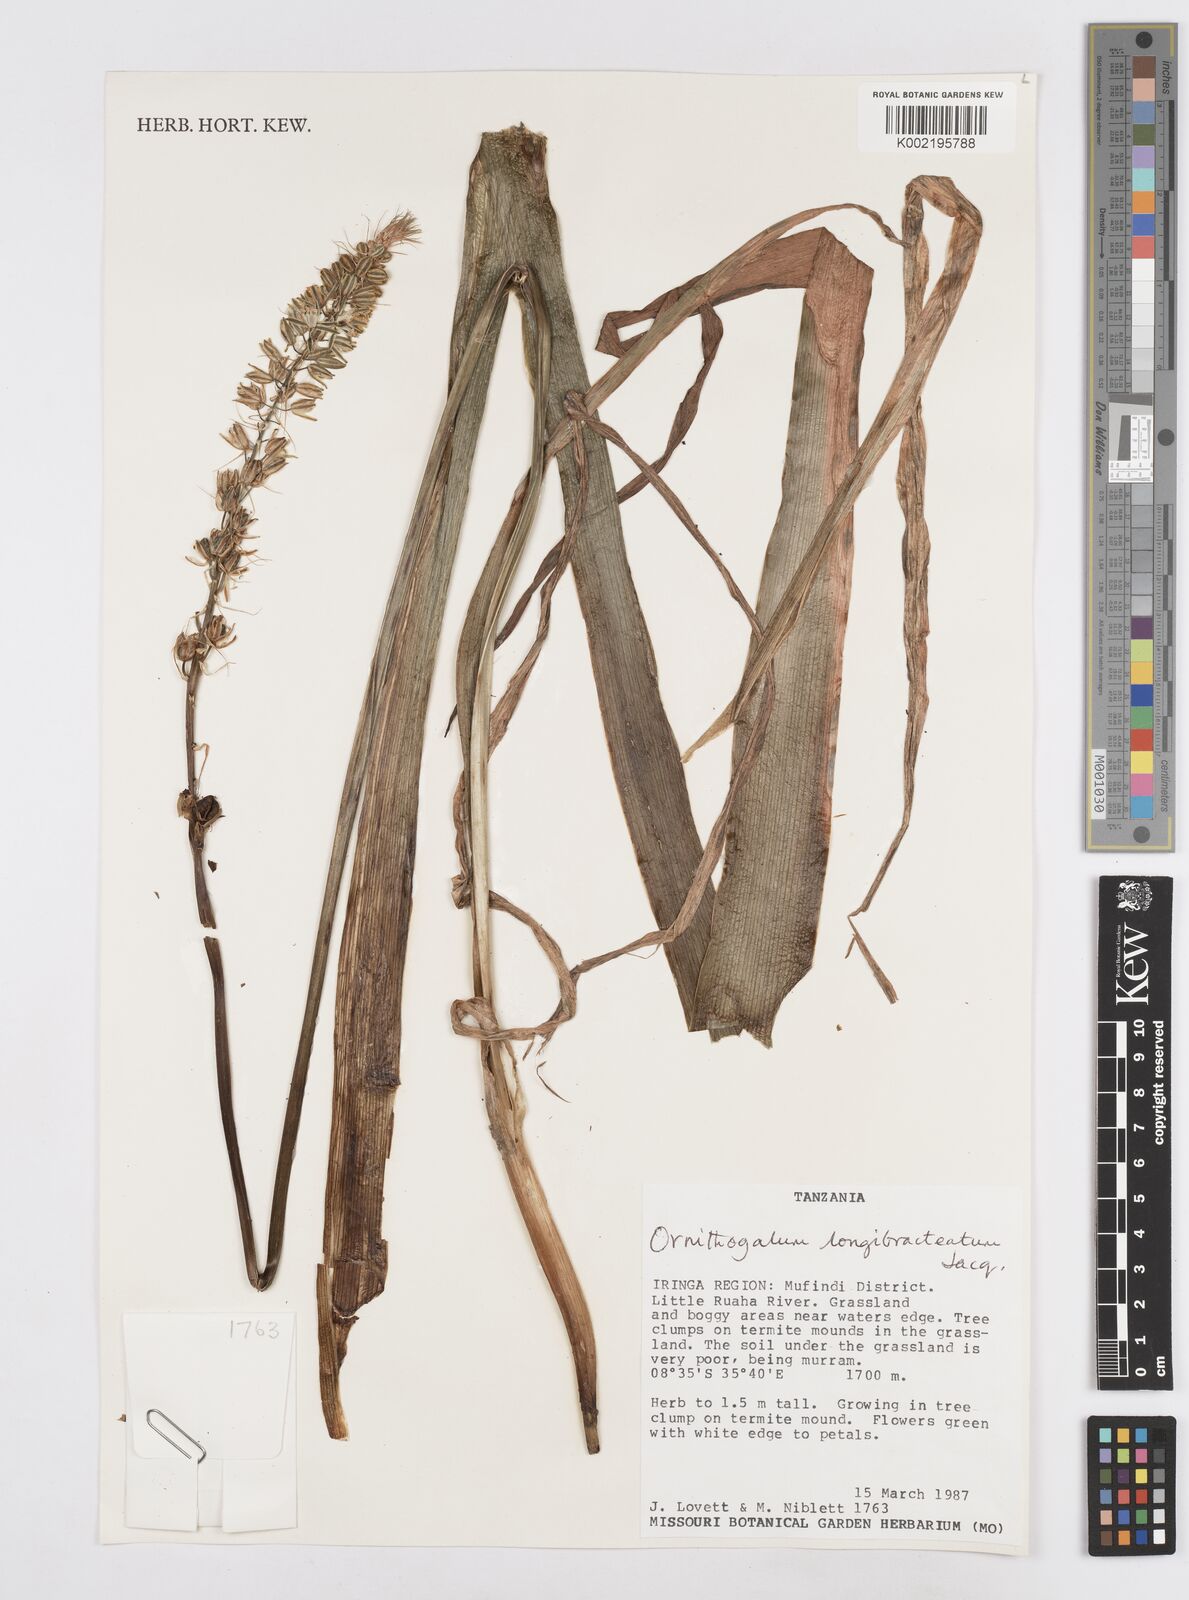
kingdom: Plantae
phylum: Tracheophyta
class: Liliopsida
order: Asparagales
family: Asparagaceae
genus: Albuca
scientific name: Albuca bracteata
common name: Sea-onion
